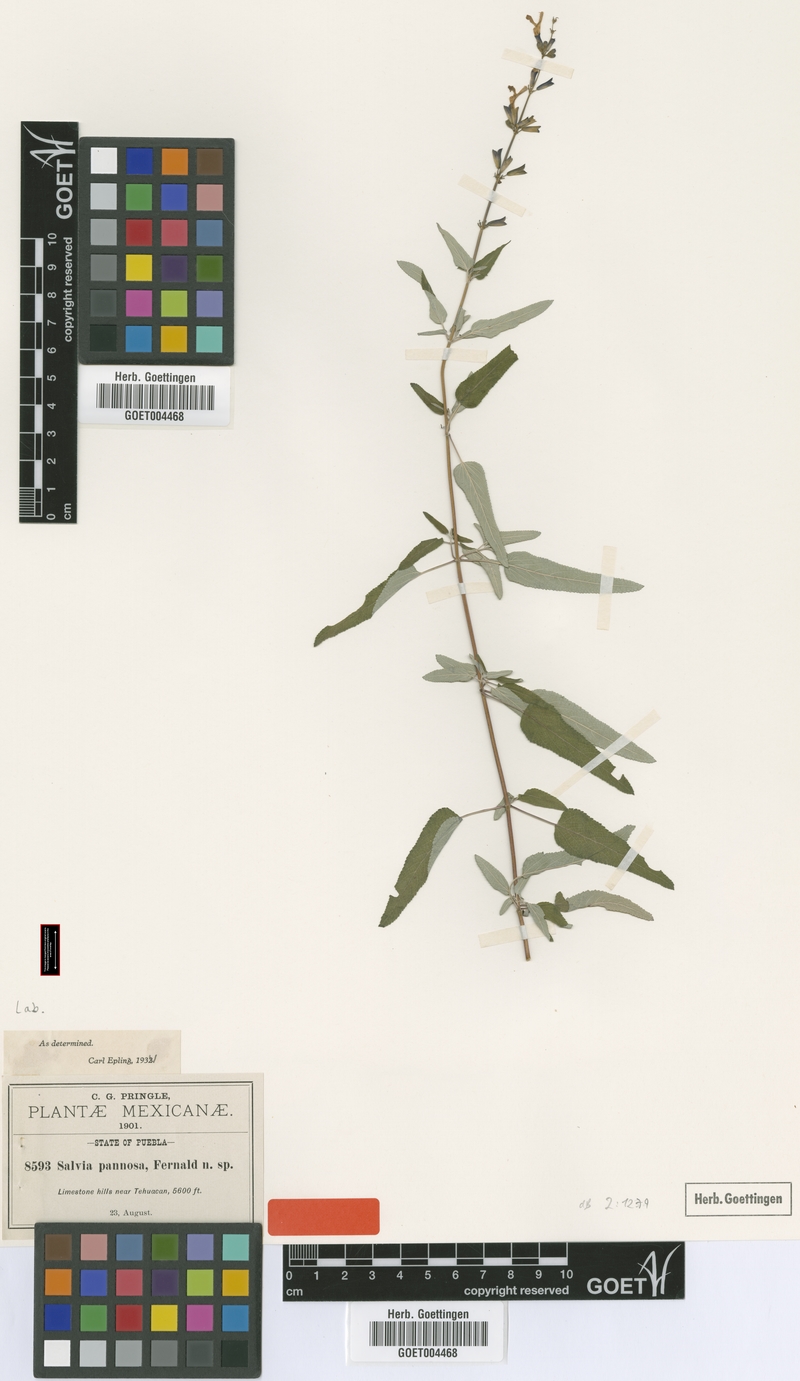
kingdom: Plantae
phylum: Tracheophyta
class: Magnoliopsida
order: Lamiales
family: Lamiaceae
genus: Salvia
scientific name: Salvia pannosa
